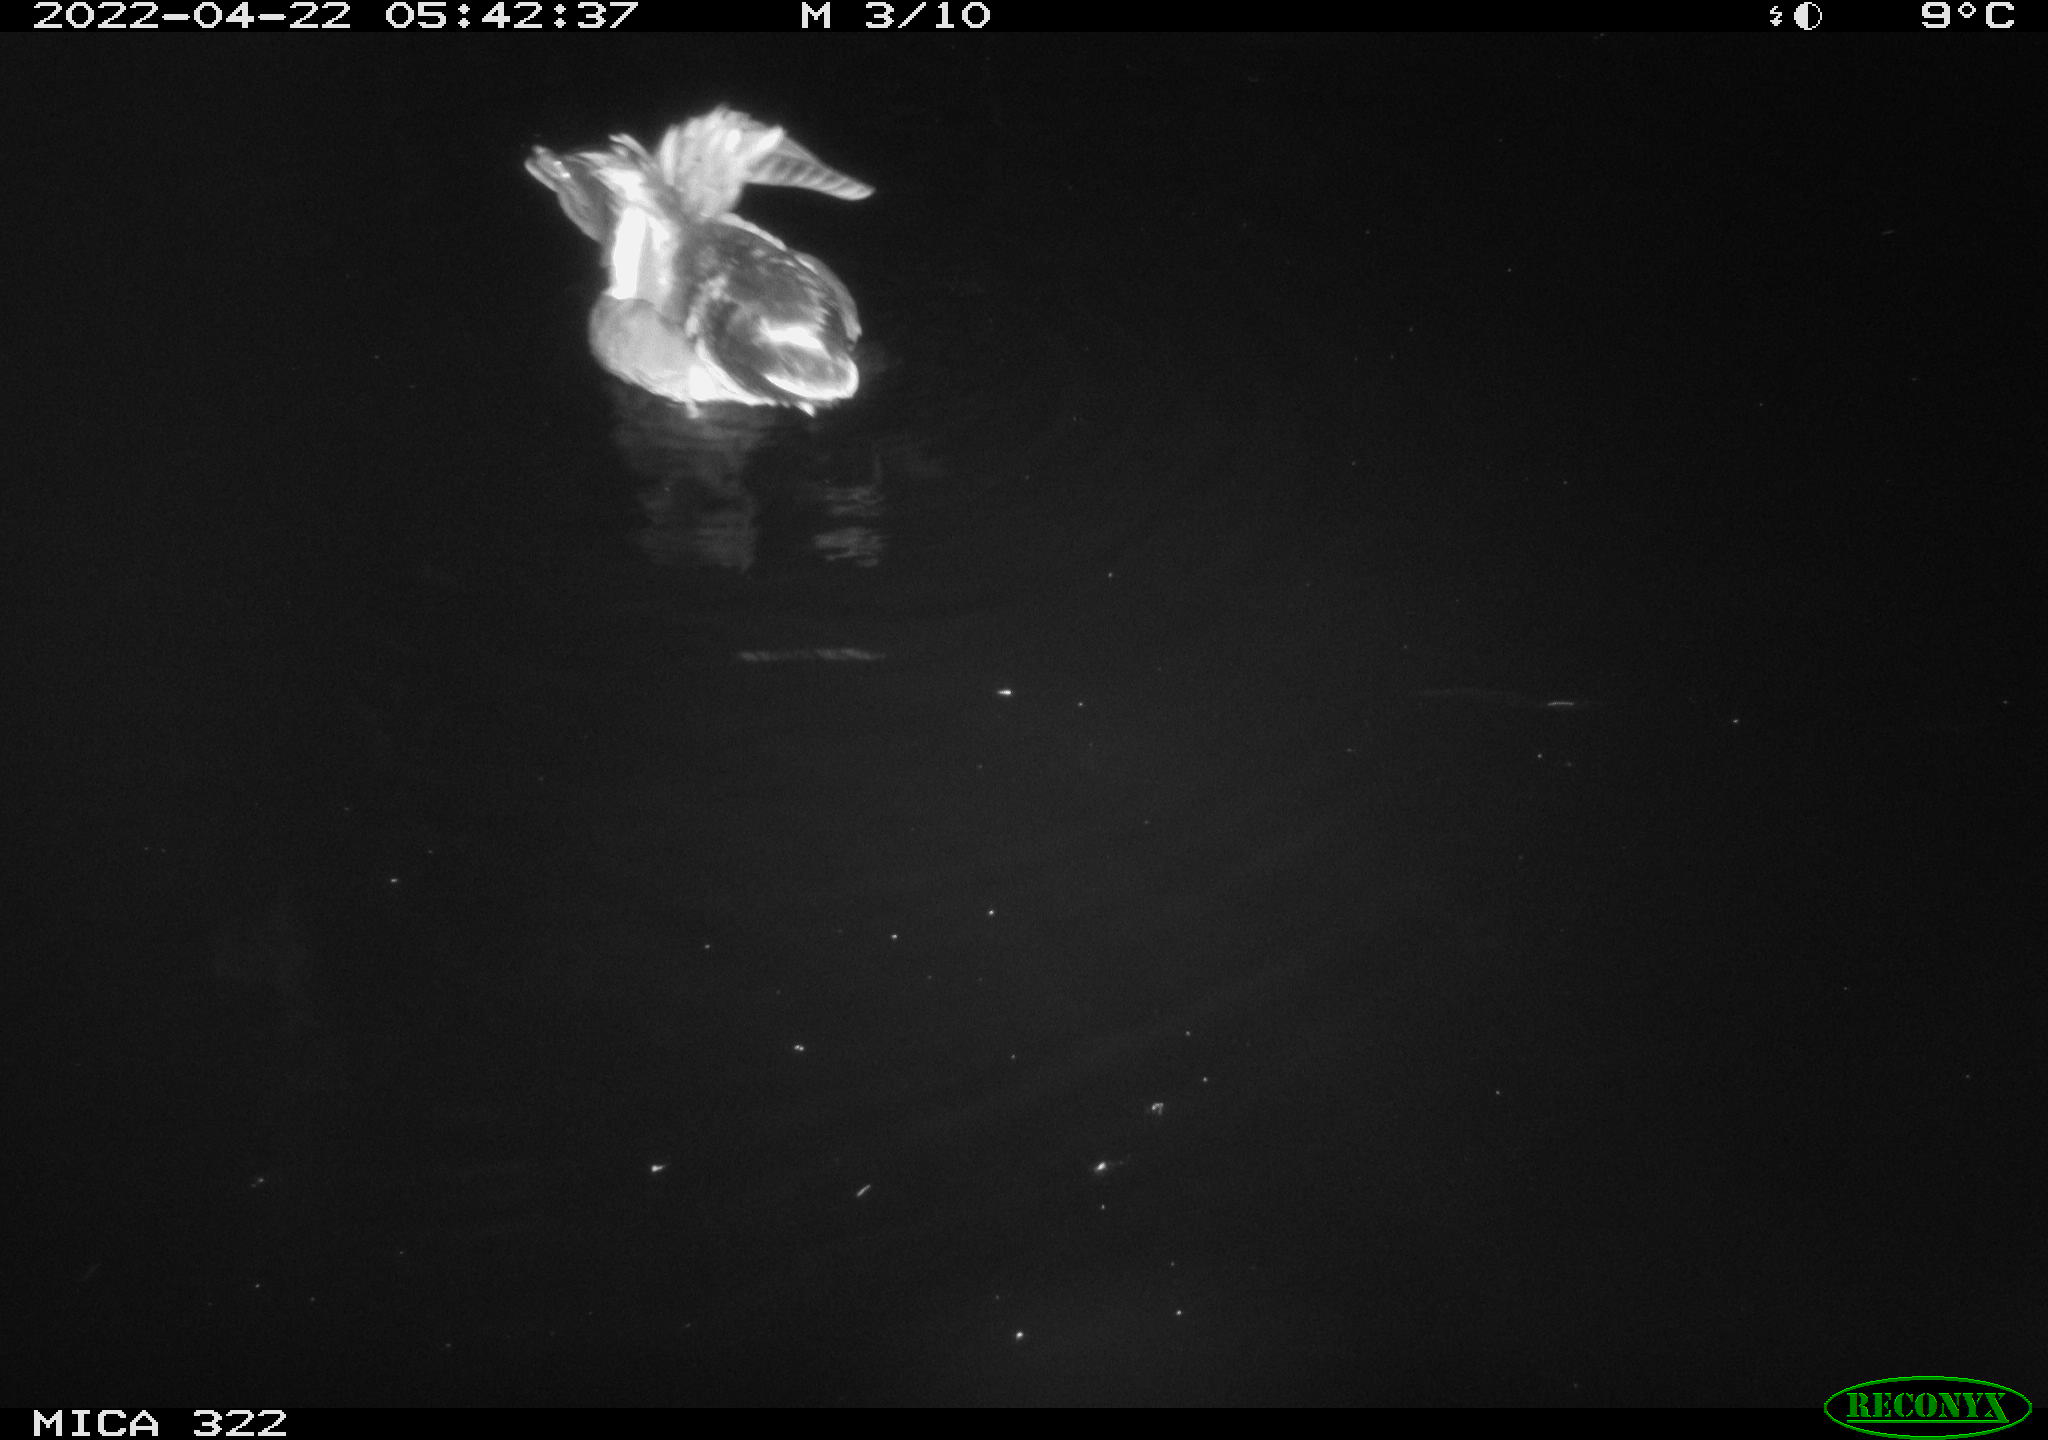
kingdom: Animalia
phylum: Chordata
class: Aves
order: Anseriformes
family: Anatidae
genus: Anas
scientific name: Anas platyrhynchos
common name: Mallard
